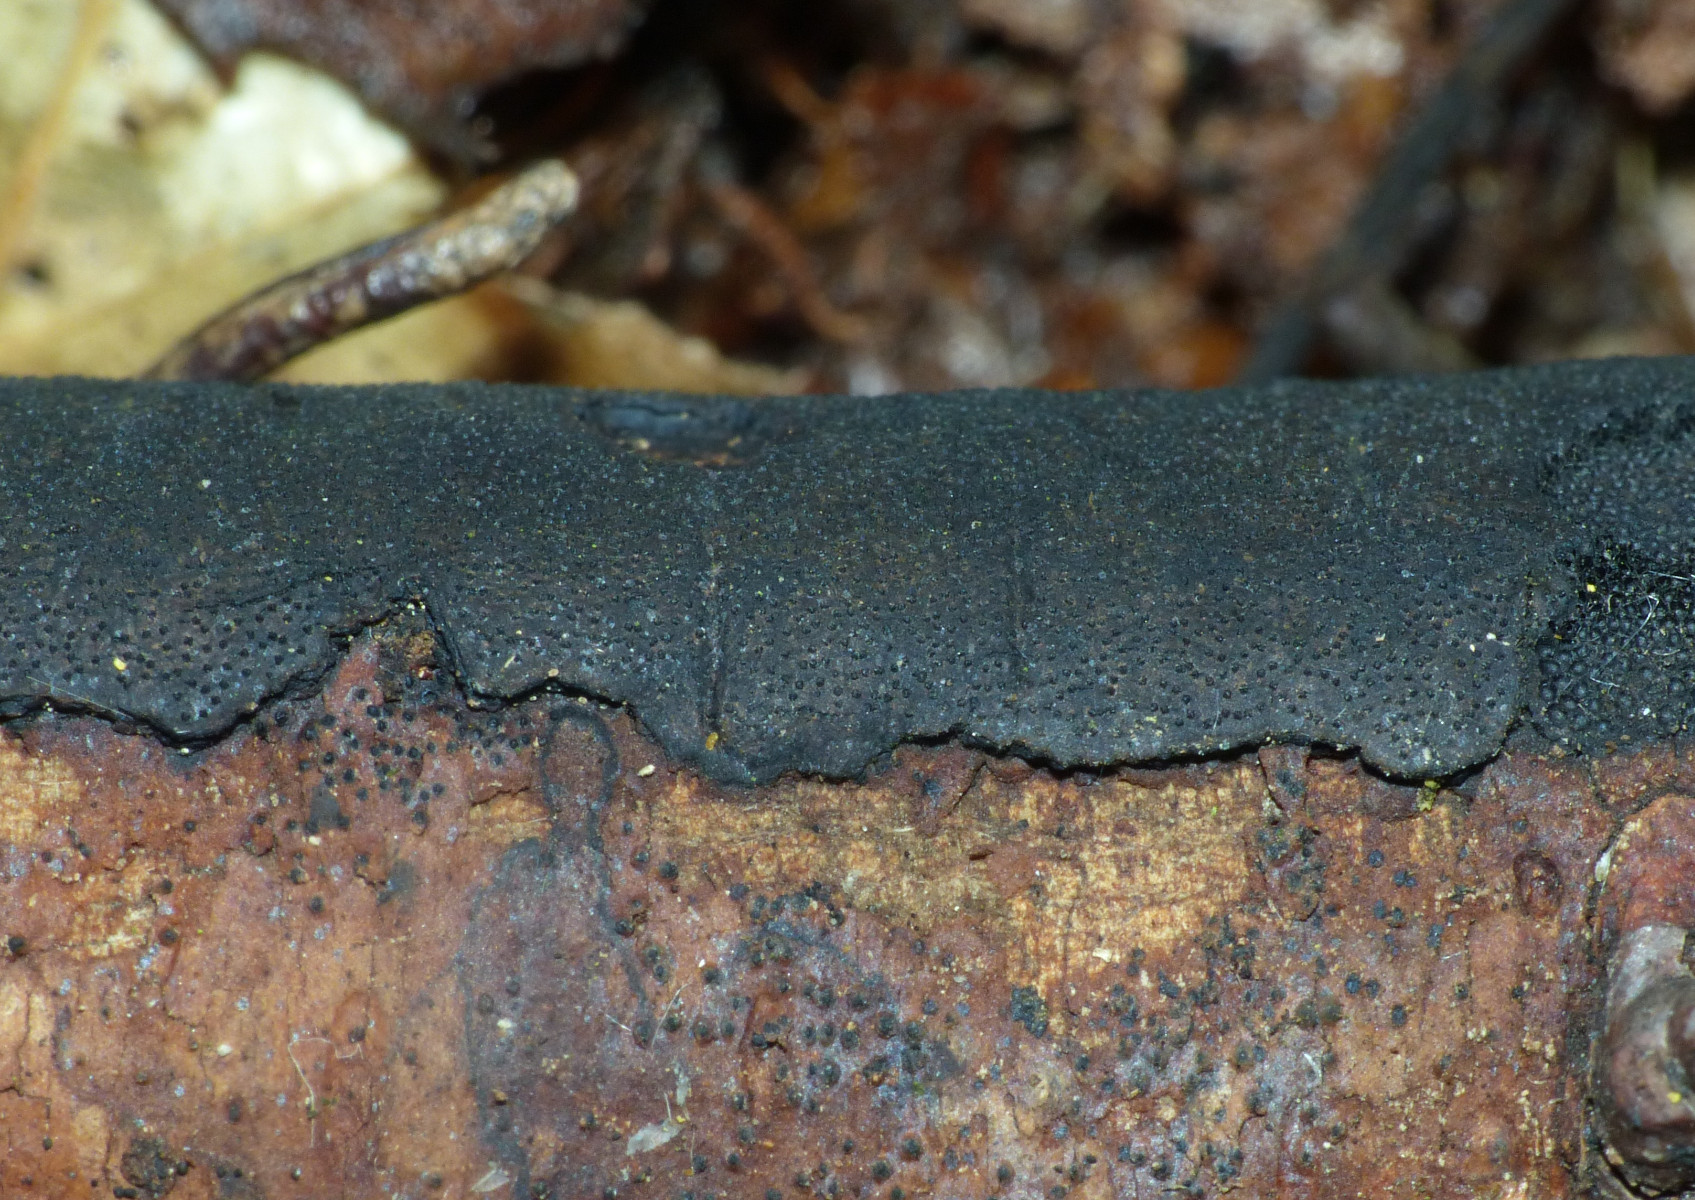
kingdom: Fungi
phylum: Ascomycota
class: Sordariomycetes
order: Xylariales
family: Diatrypaceae
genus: Diatrype
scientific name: Diatrype
